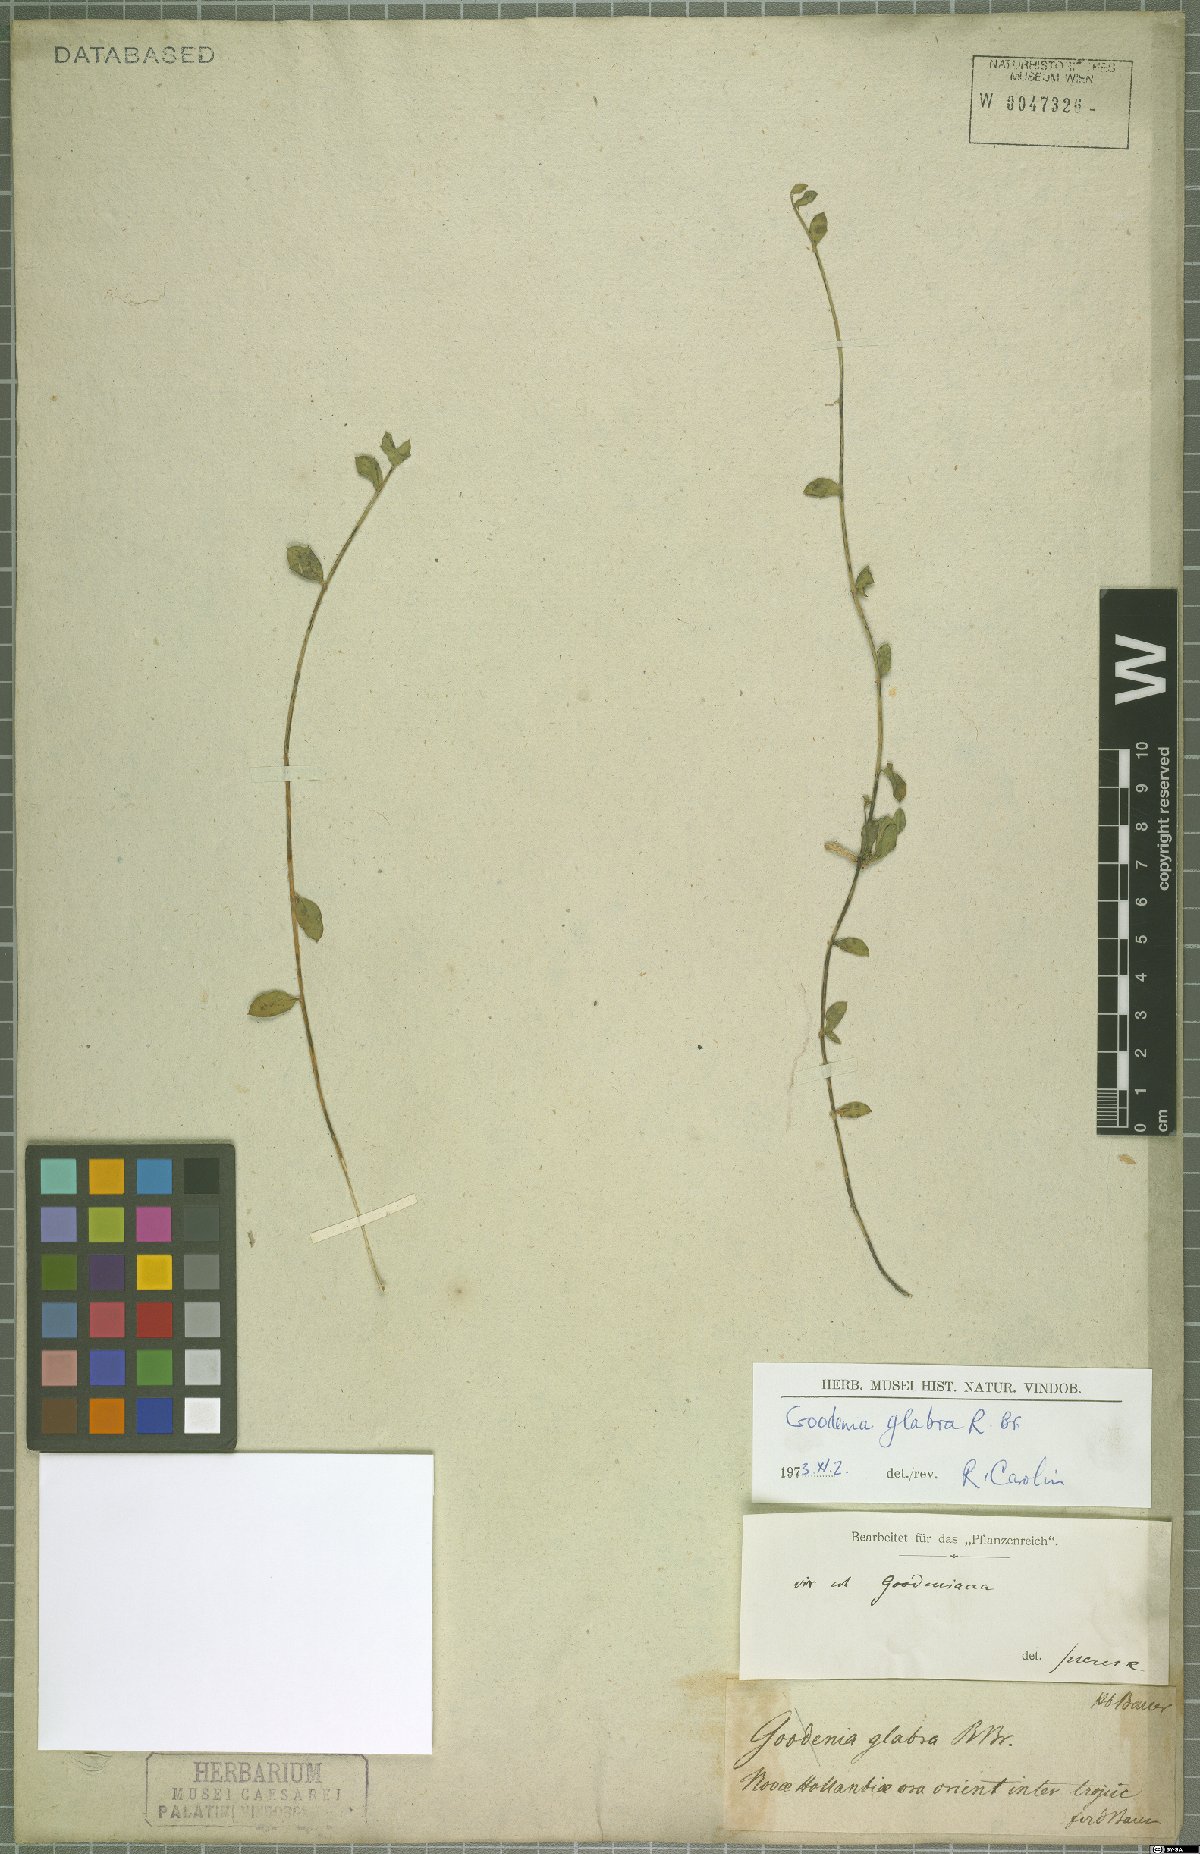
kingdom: Plantae
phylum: Tracheophyta
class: Magnoliopsida
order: Asterales
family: Goodeniaceae
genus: Goodenia
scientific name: Goodenia glabra
